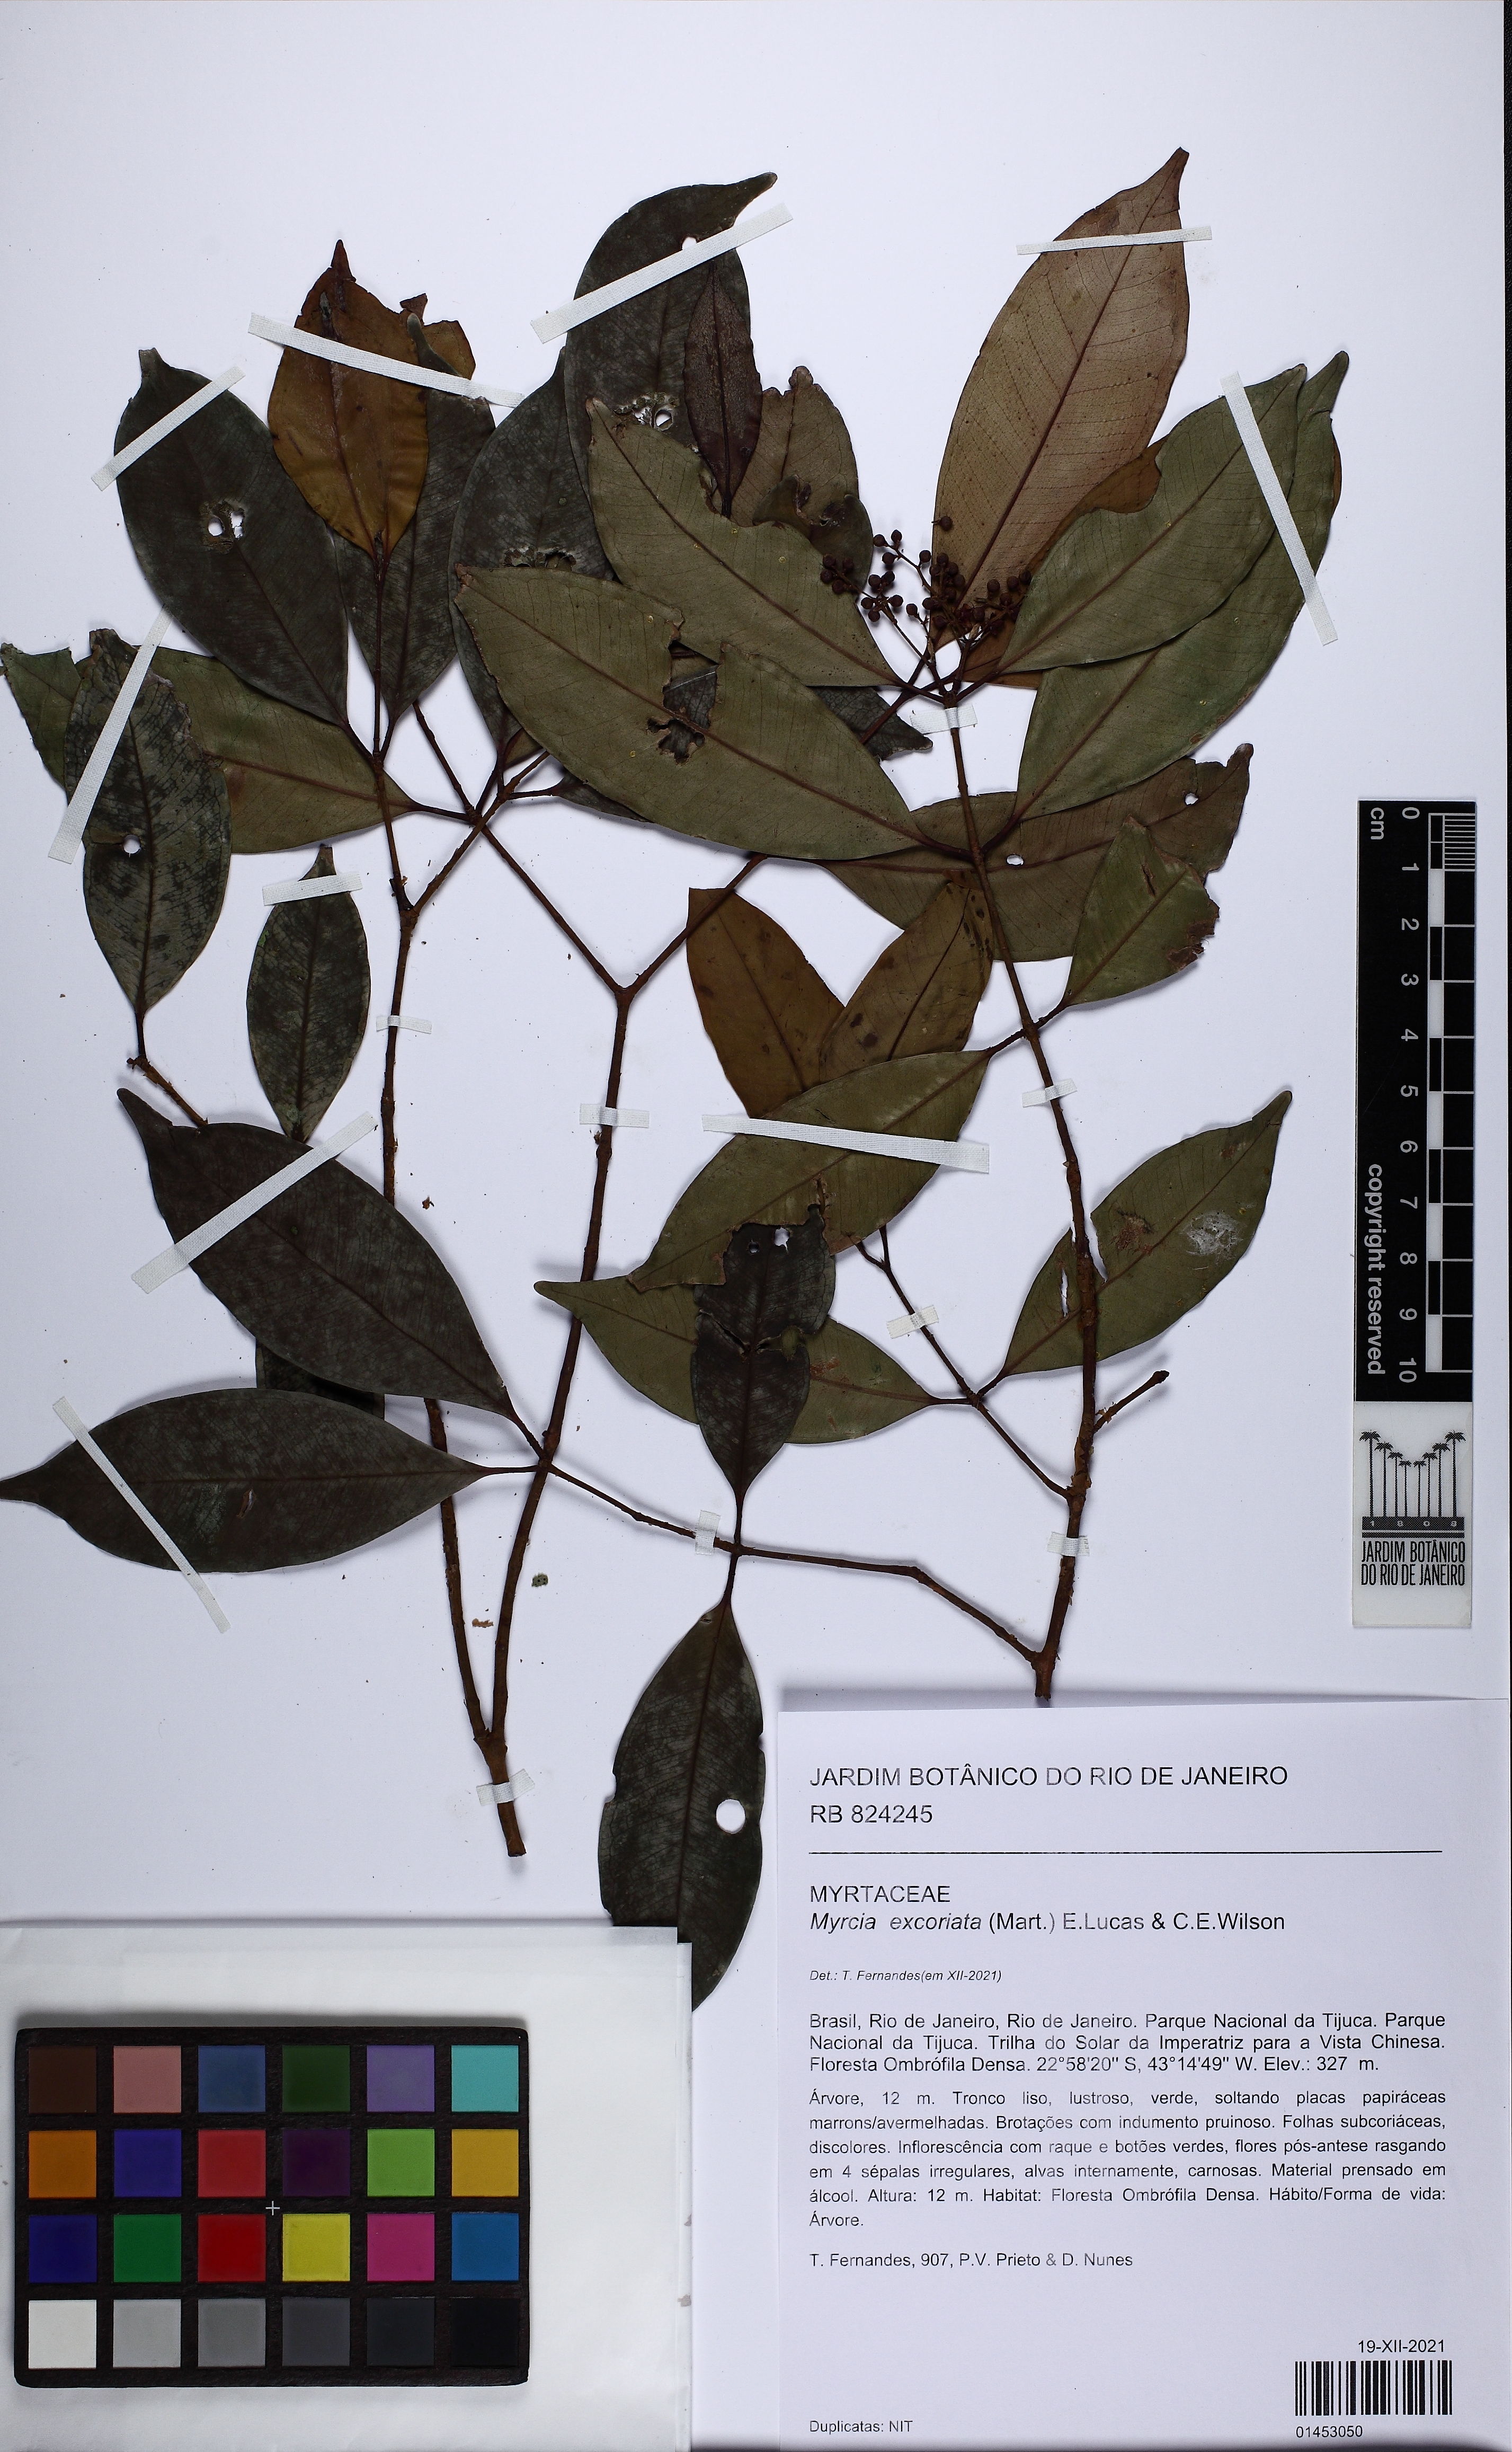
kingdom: Plantae
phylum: Tracheophyta
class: Magnoliopsida
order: Myrtales
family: Myrtaceae
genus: Myrcia
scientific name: Myrcia excoriata
